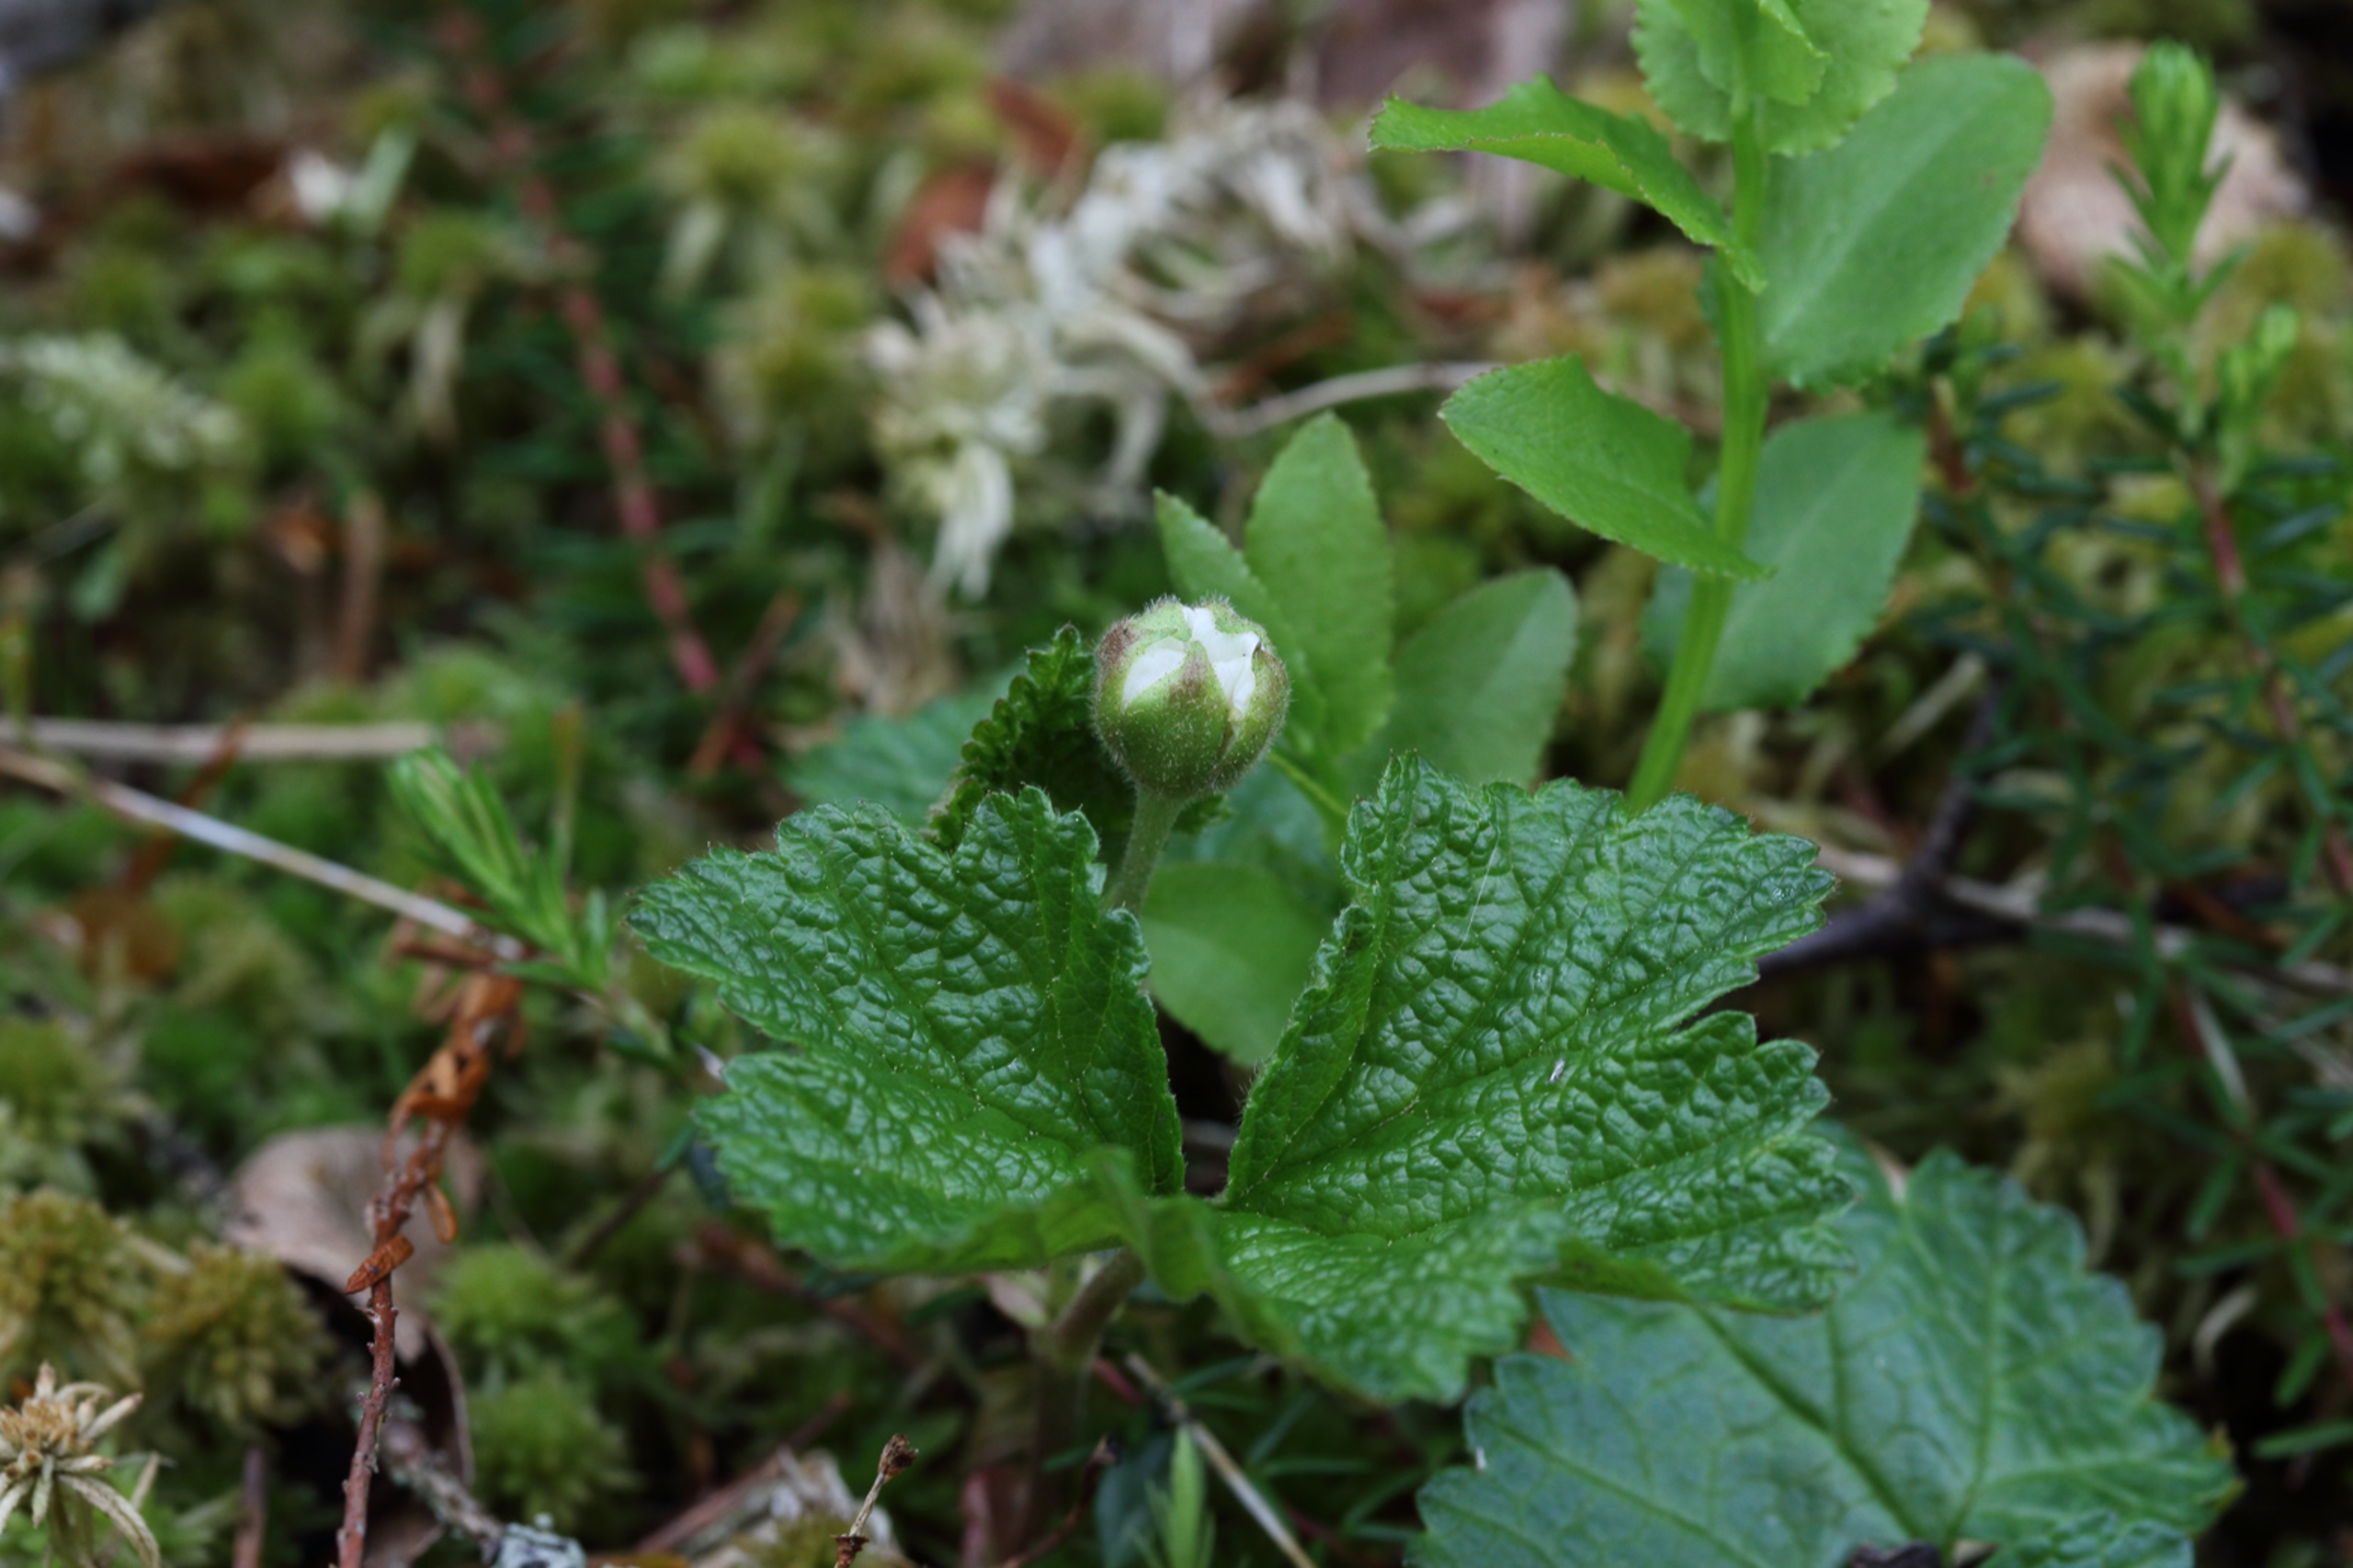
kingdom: Plantae
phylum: Tracheophyta
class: Magnoliopsida
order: Rosales
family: Rosaceae
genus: Rubus
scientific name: Rubus chamaemorus
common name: Multebær
